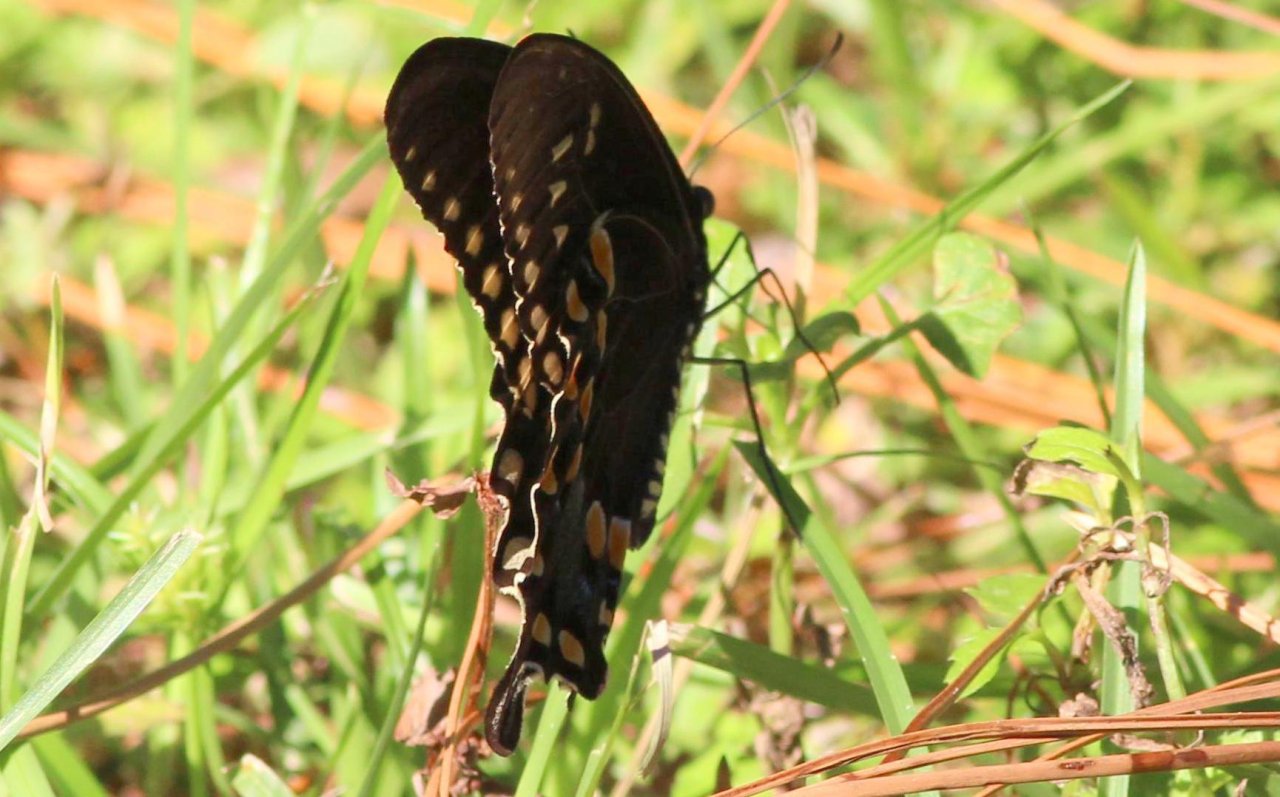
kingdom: Animalia
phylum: Arthropoda
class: Insecta
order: Lepidoptera
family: Papilionidae
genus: Pterourus
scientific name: Pterourus troilus
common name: Spicebush Swallowtail
